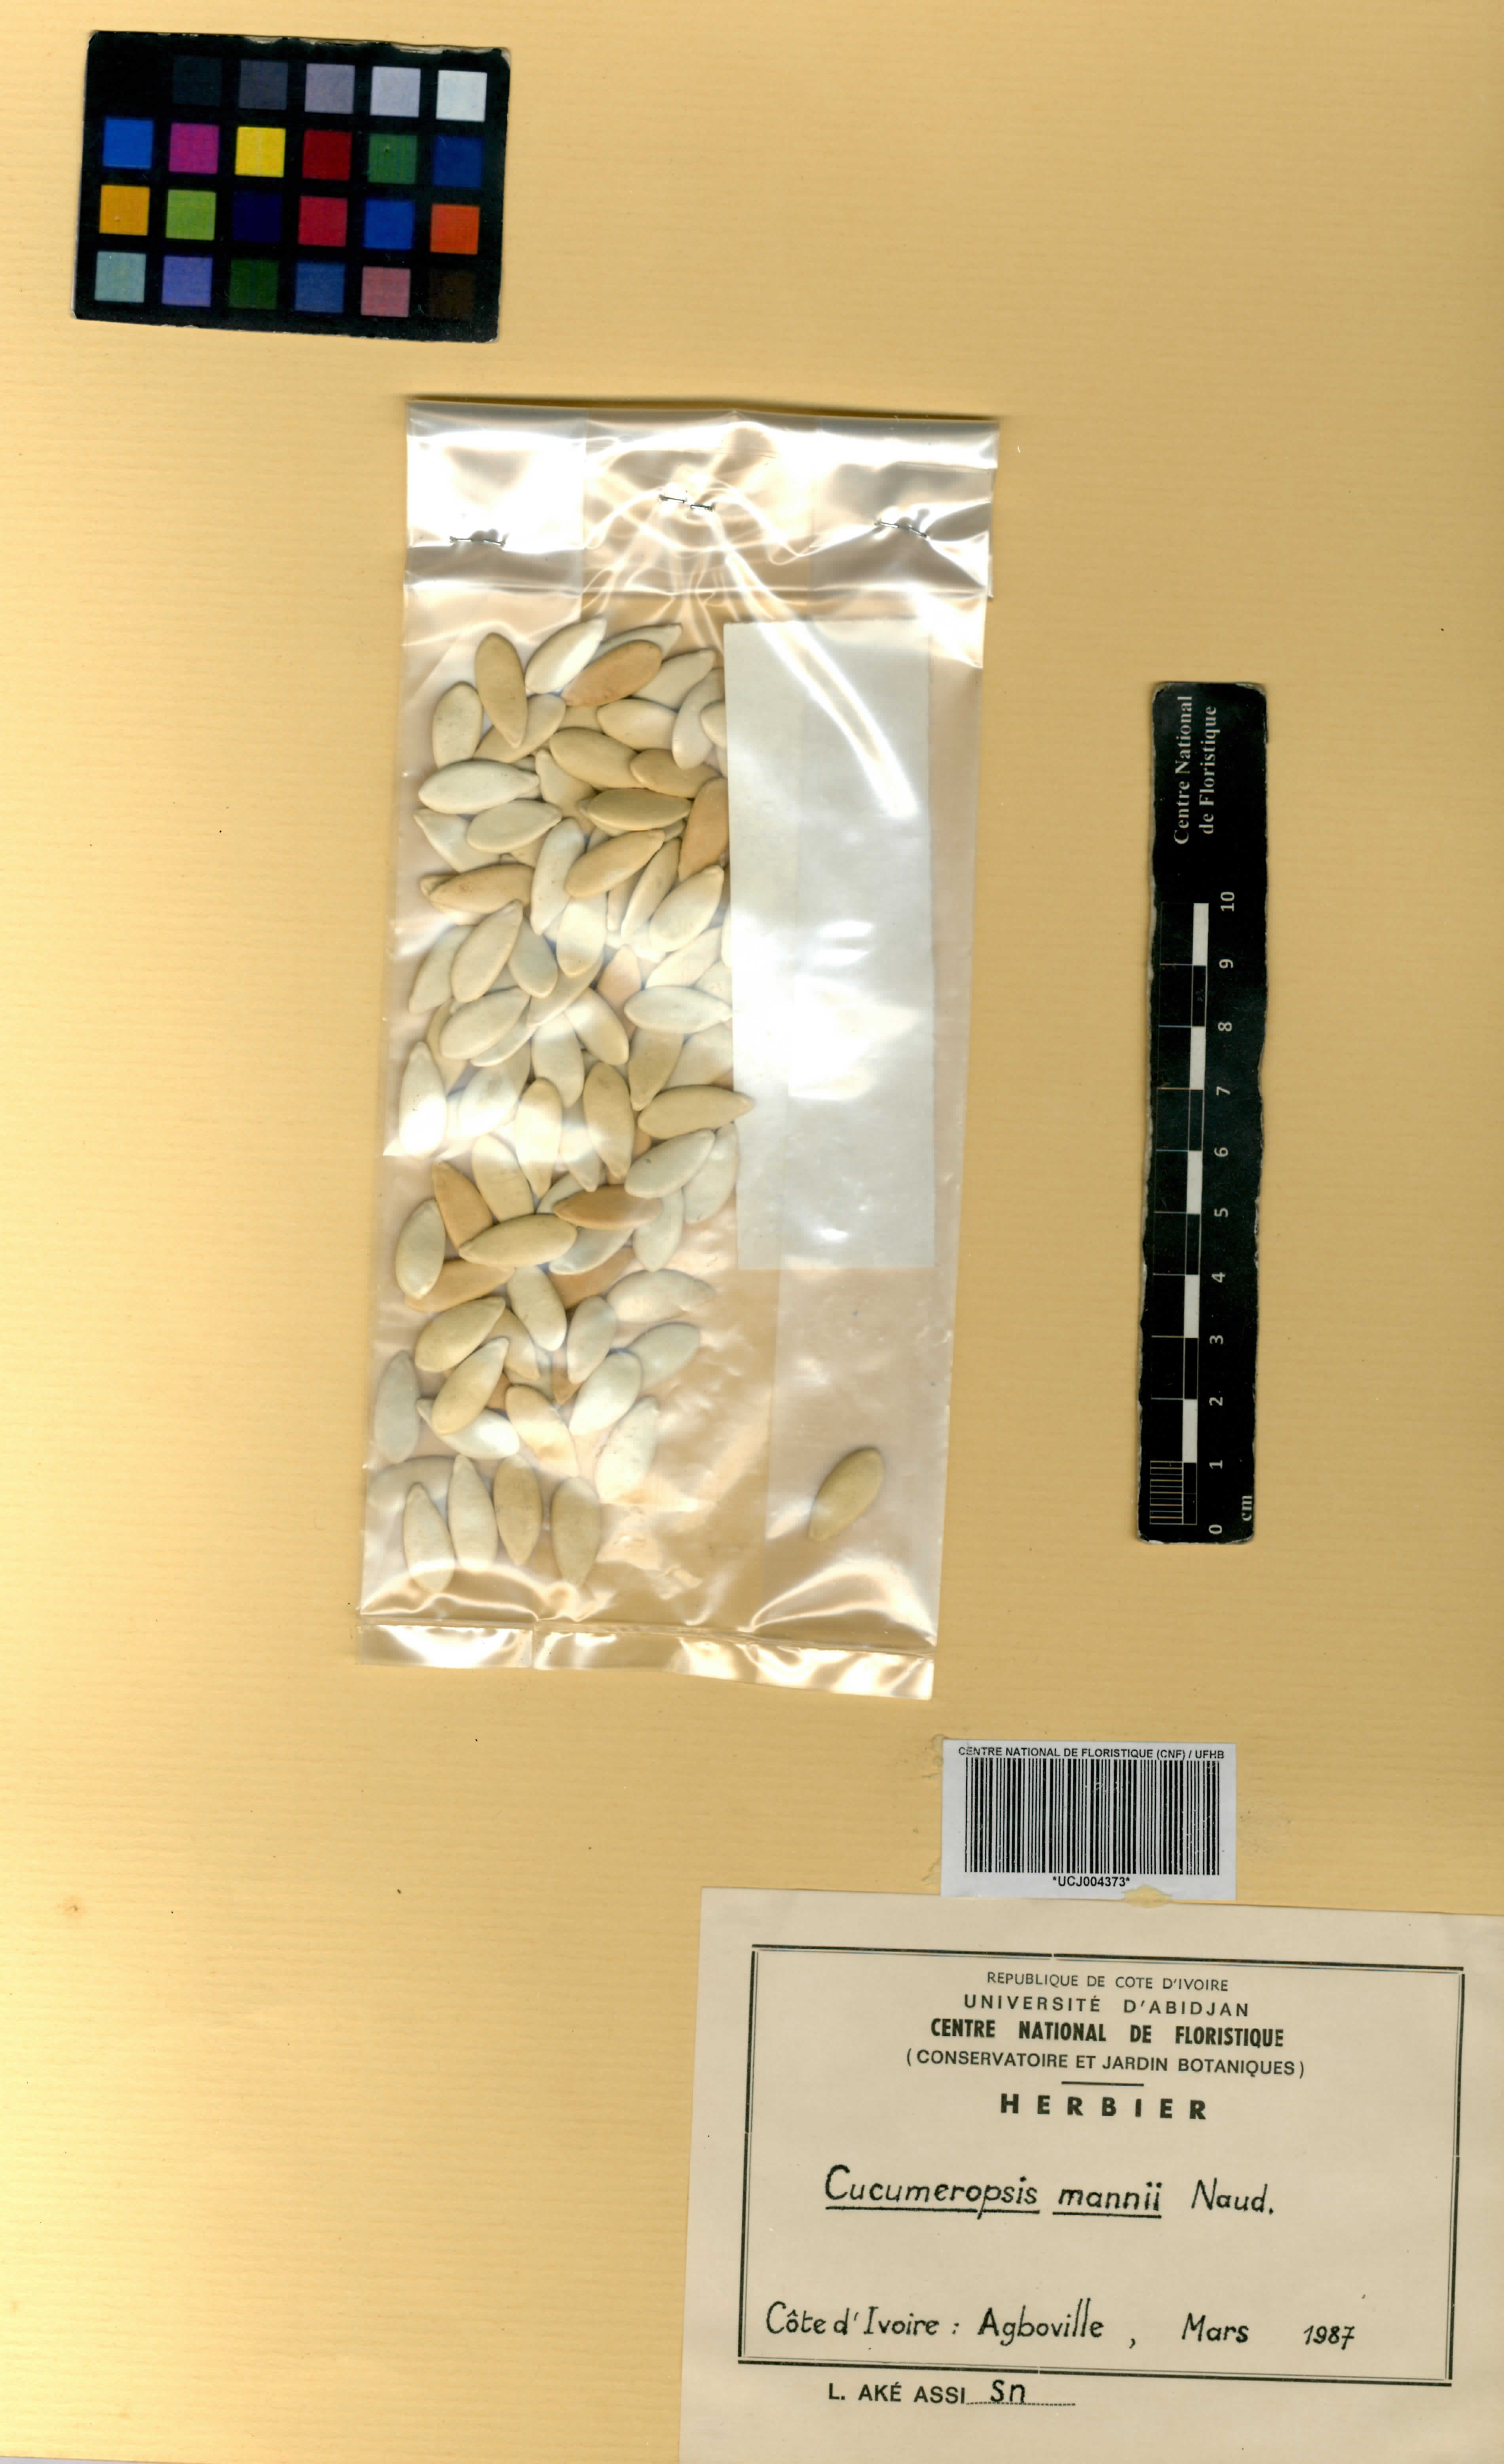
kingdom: Plantae
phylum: Tracheophyta
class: Magnoliopsida
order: Cucurbitales
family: Cucurbitaceae
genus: Melothria
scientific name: Melothria sphaerocarpa
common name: Egusi-itoo
